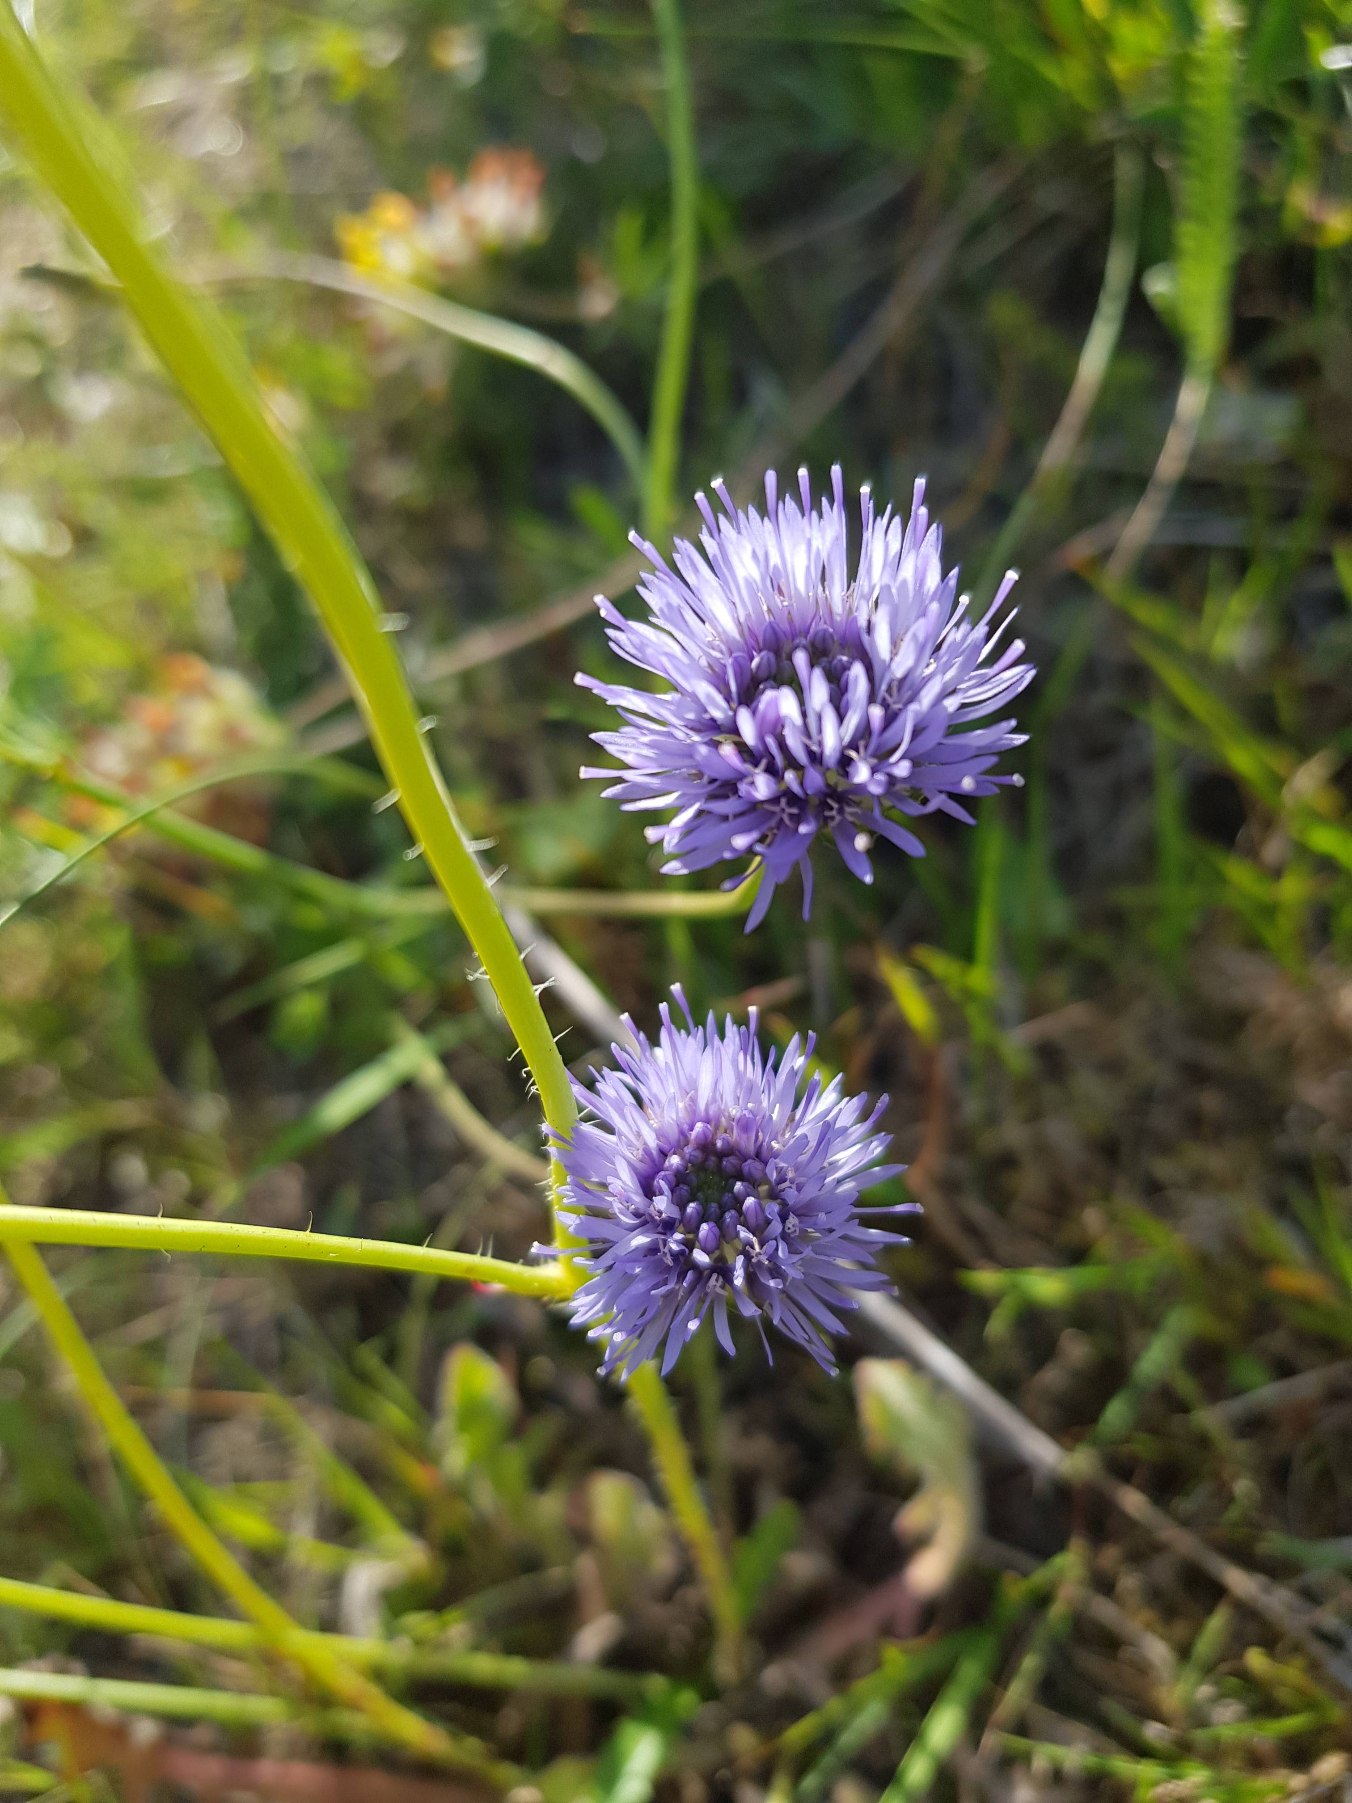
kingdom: Plantae
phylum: Tracheophyta
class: Magnoliopsida
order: Asterales
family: Campanulaceae
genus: Jasione
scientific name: Jasione montana
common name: Blåmunke
